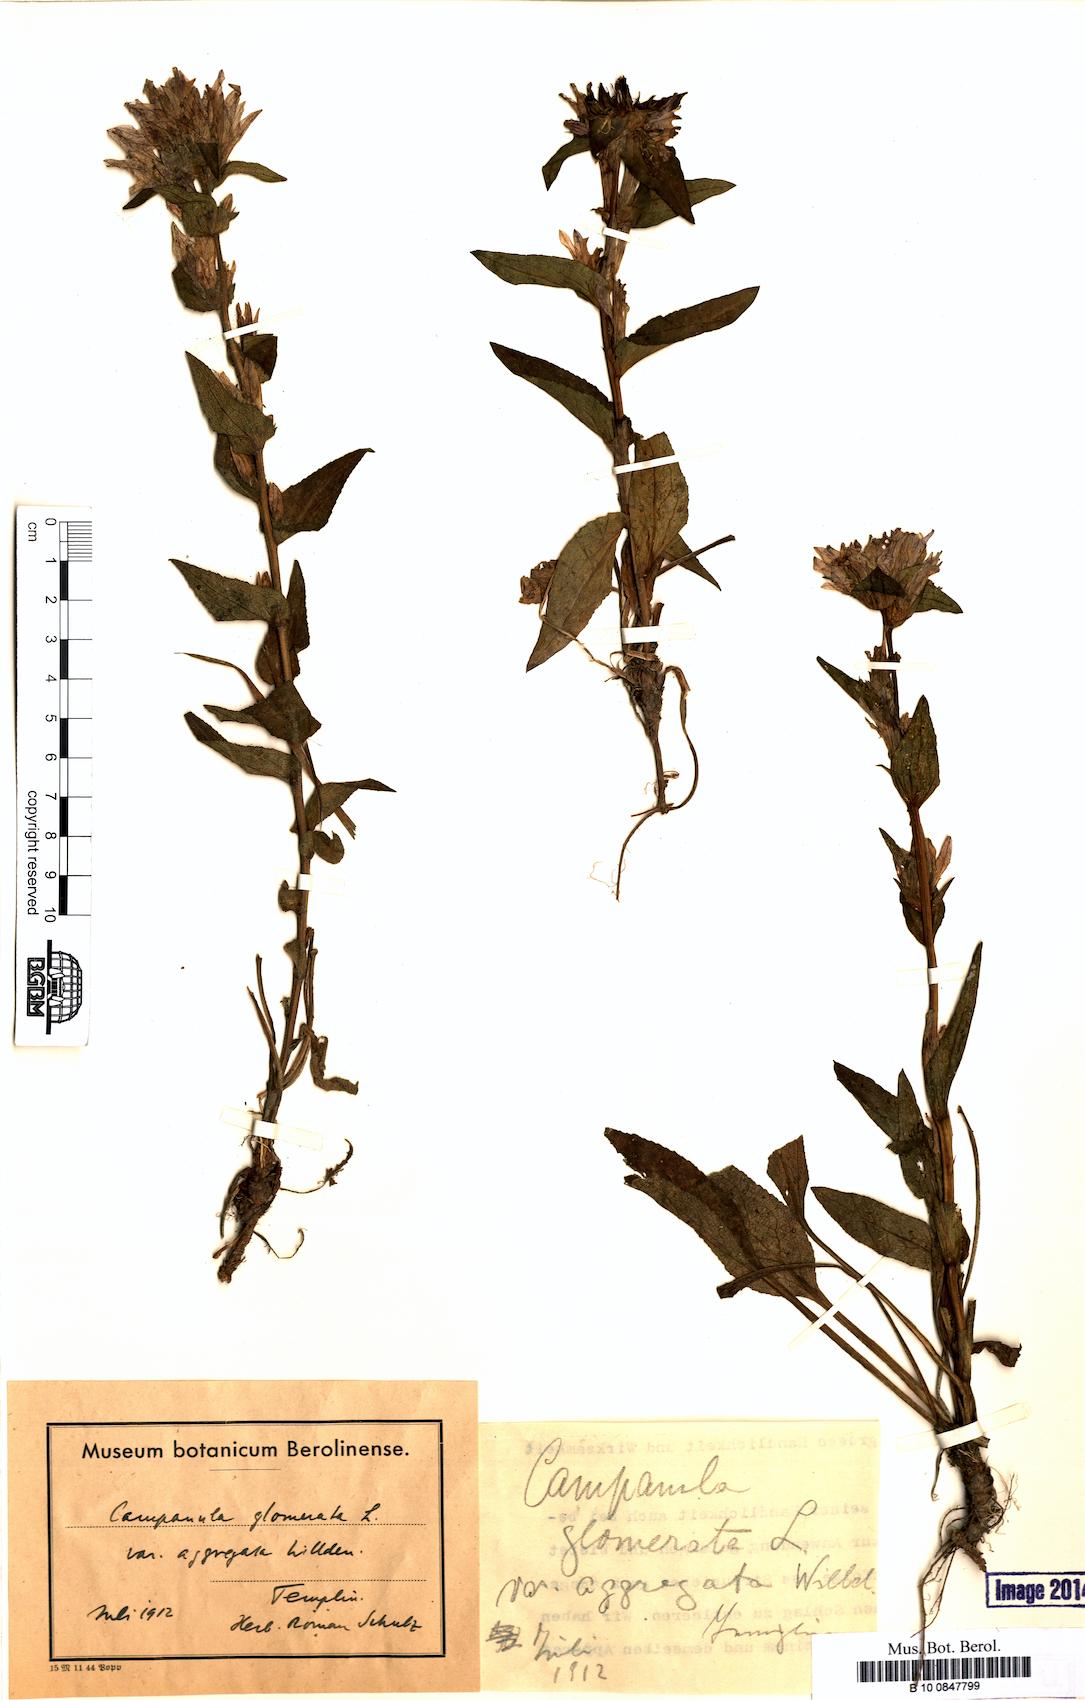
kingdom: Plantae
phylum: Tracheophyta
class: Magnoliopsida
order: Asterales
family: Campanulaceae
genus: Campanula
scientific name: Campanula glomerata
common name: Clustered bellflower
